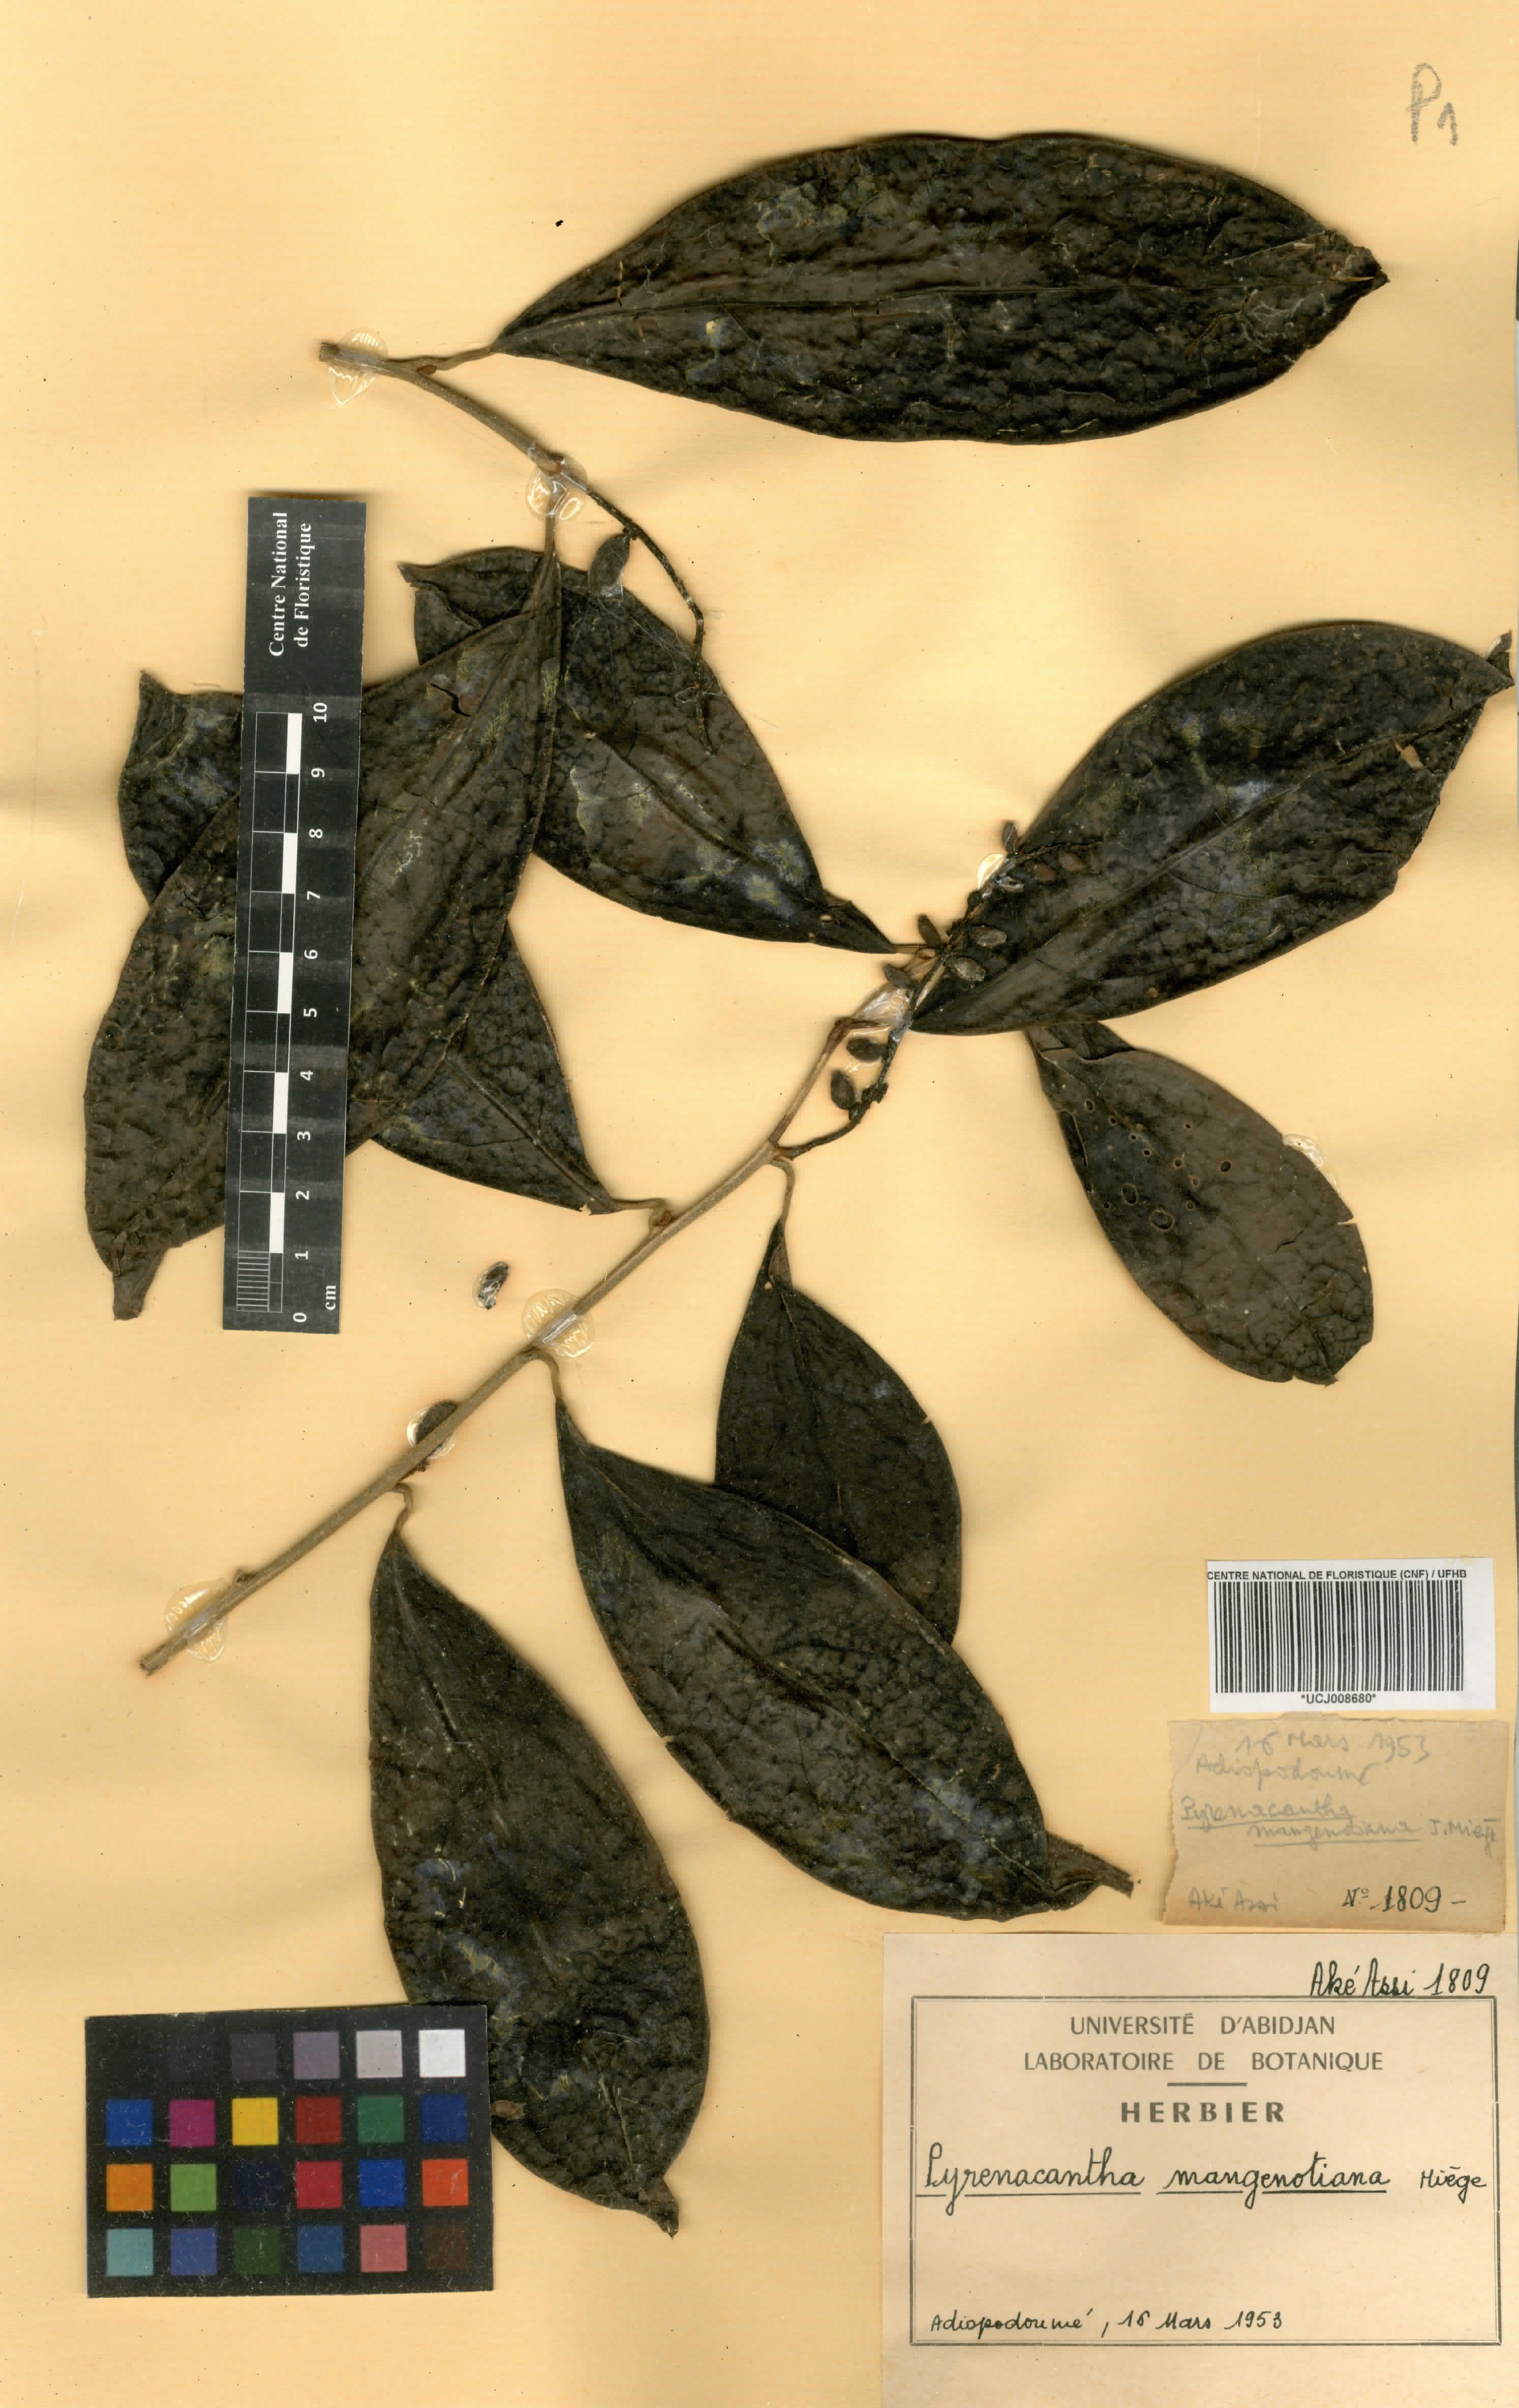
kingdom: Plantae
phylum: Tracheophyta
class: Magnoliopsida
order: Icacinales
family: Icacinaceae
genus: Pyrenacantha
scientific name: Pyrenacantha glabrescens
